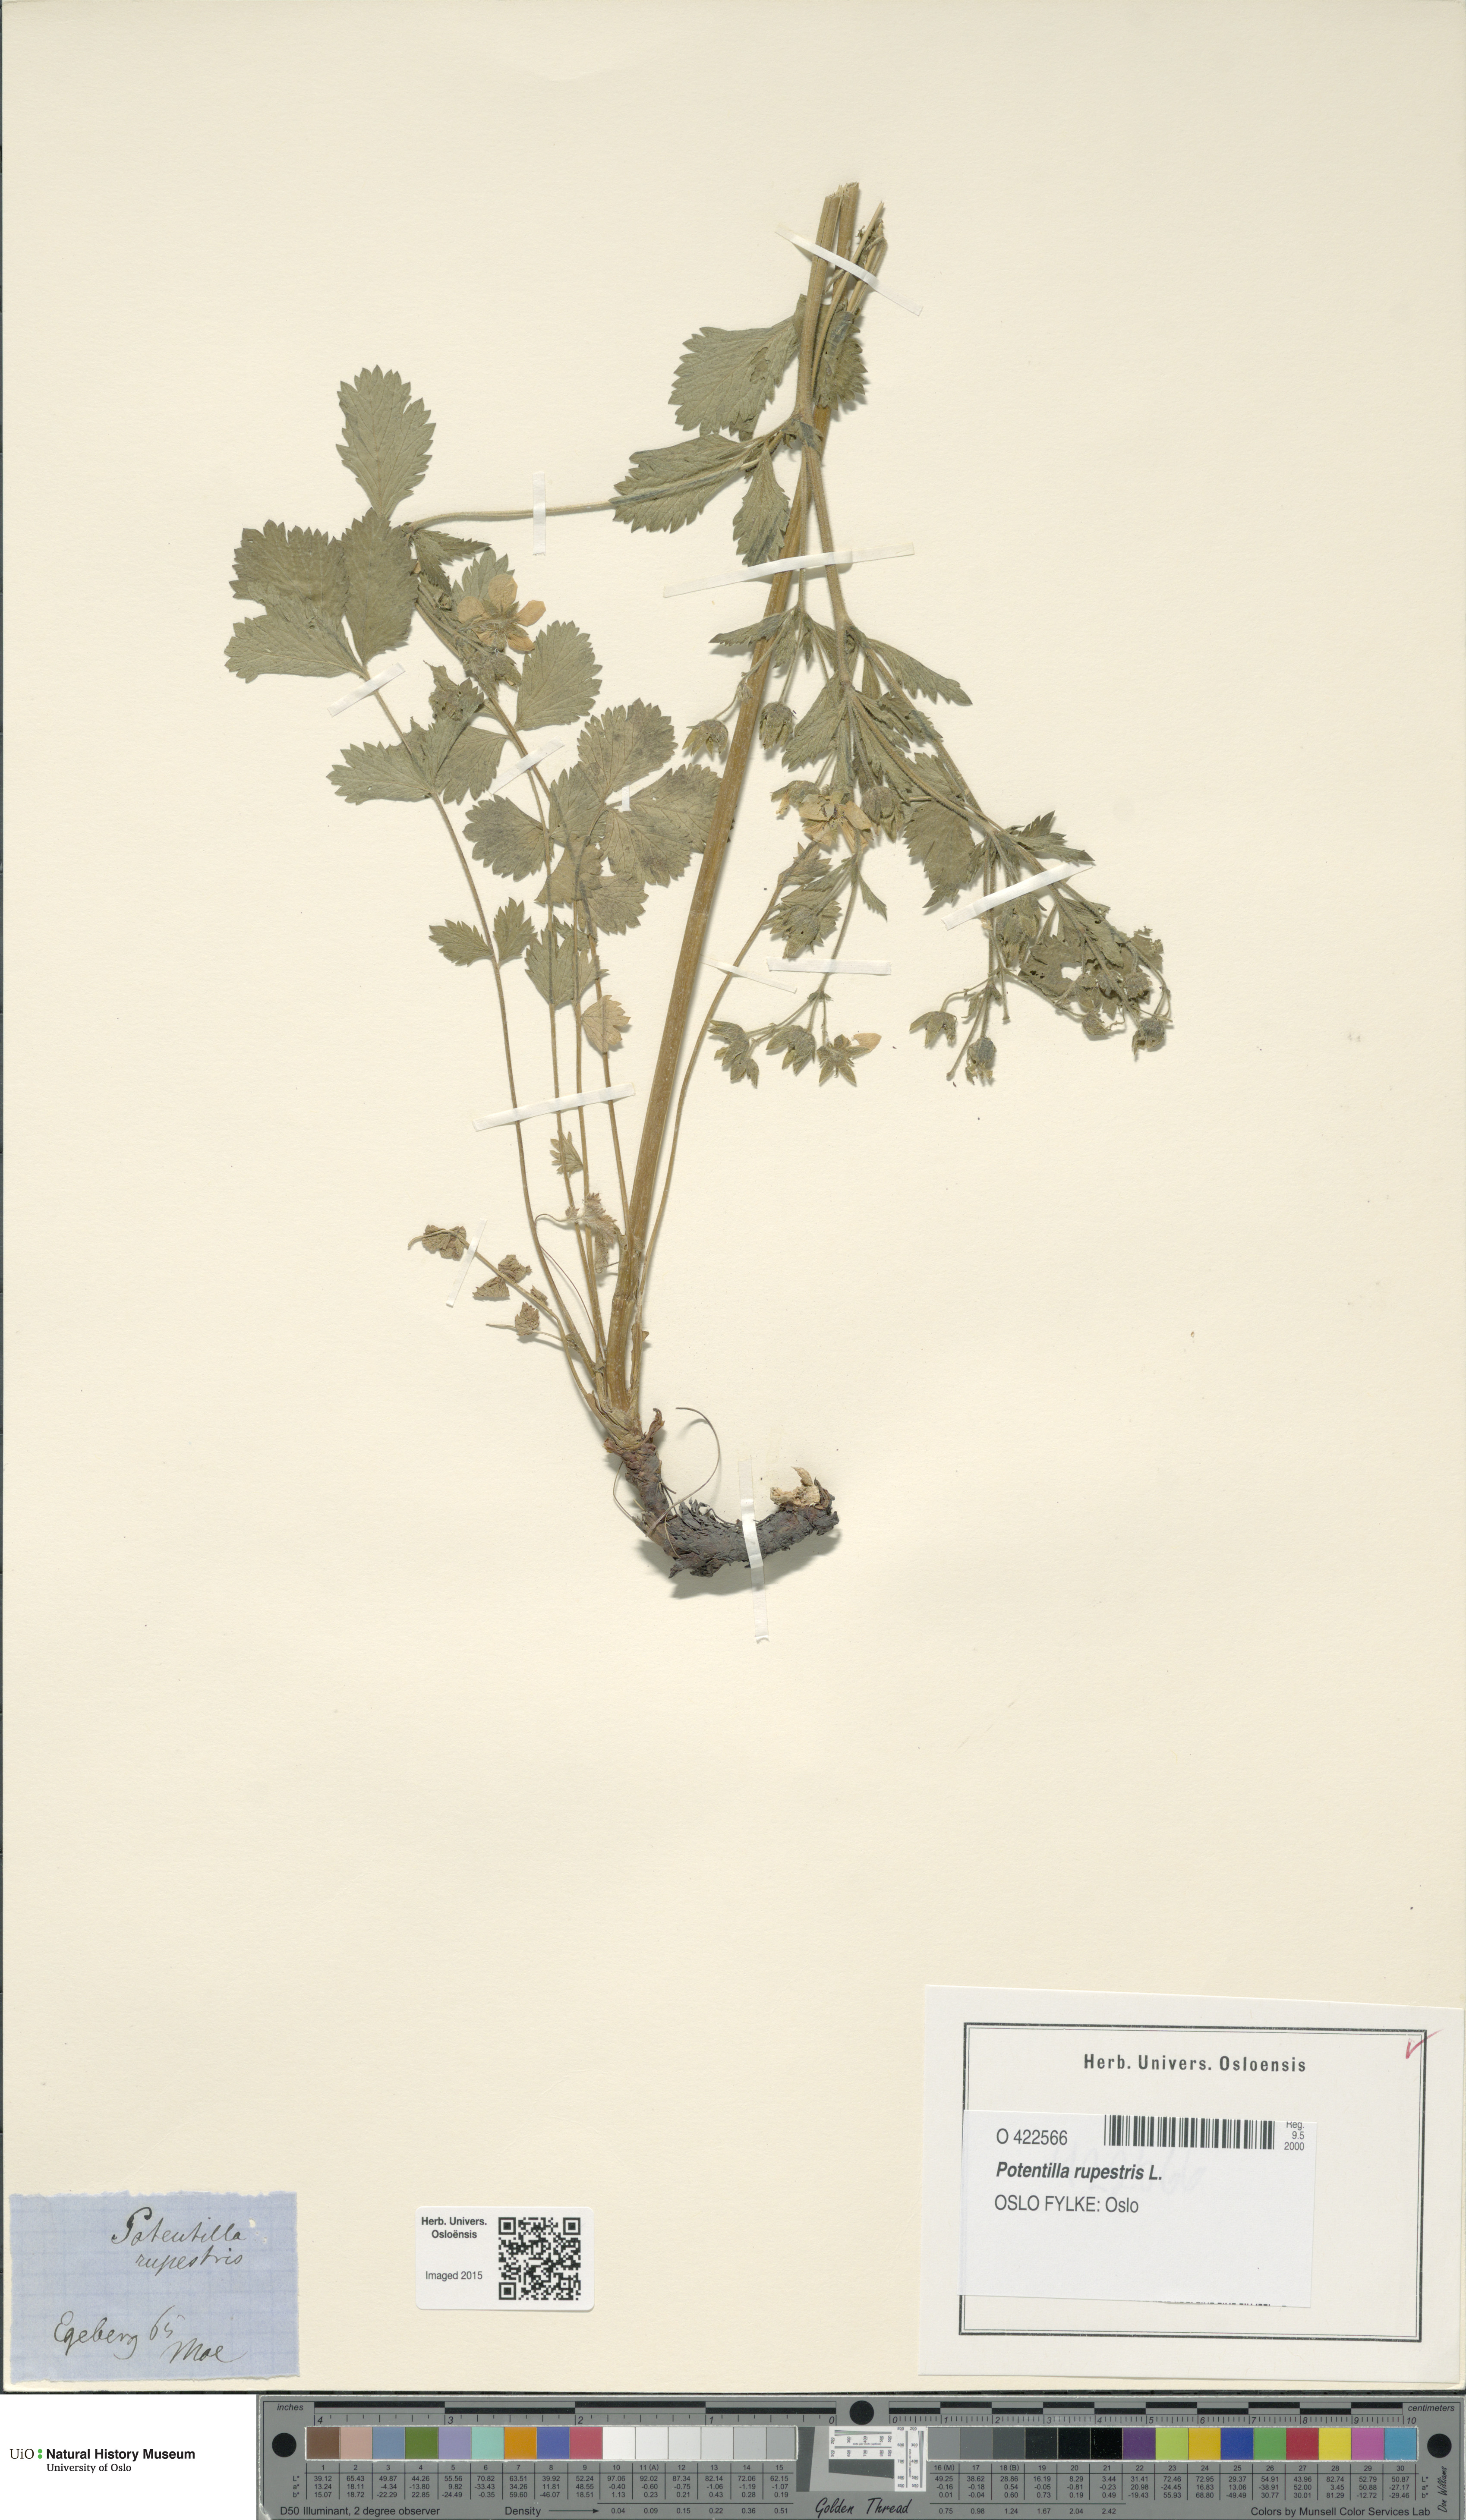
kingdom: Plantae
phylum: Tracheophyta
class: Magnoliopsida
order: Rosales
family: Rosaceae
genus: Drymocallis
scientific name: Drymocallis rupestris
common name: Rock cinquefoil
